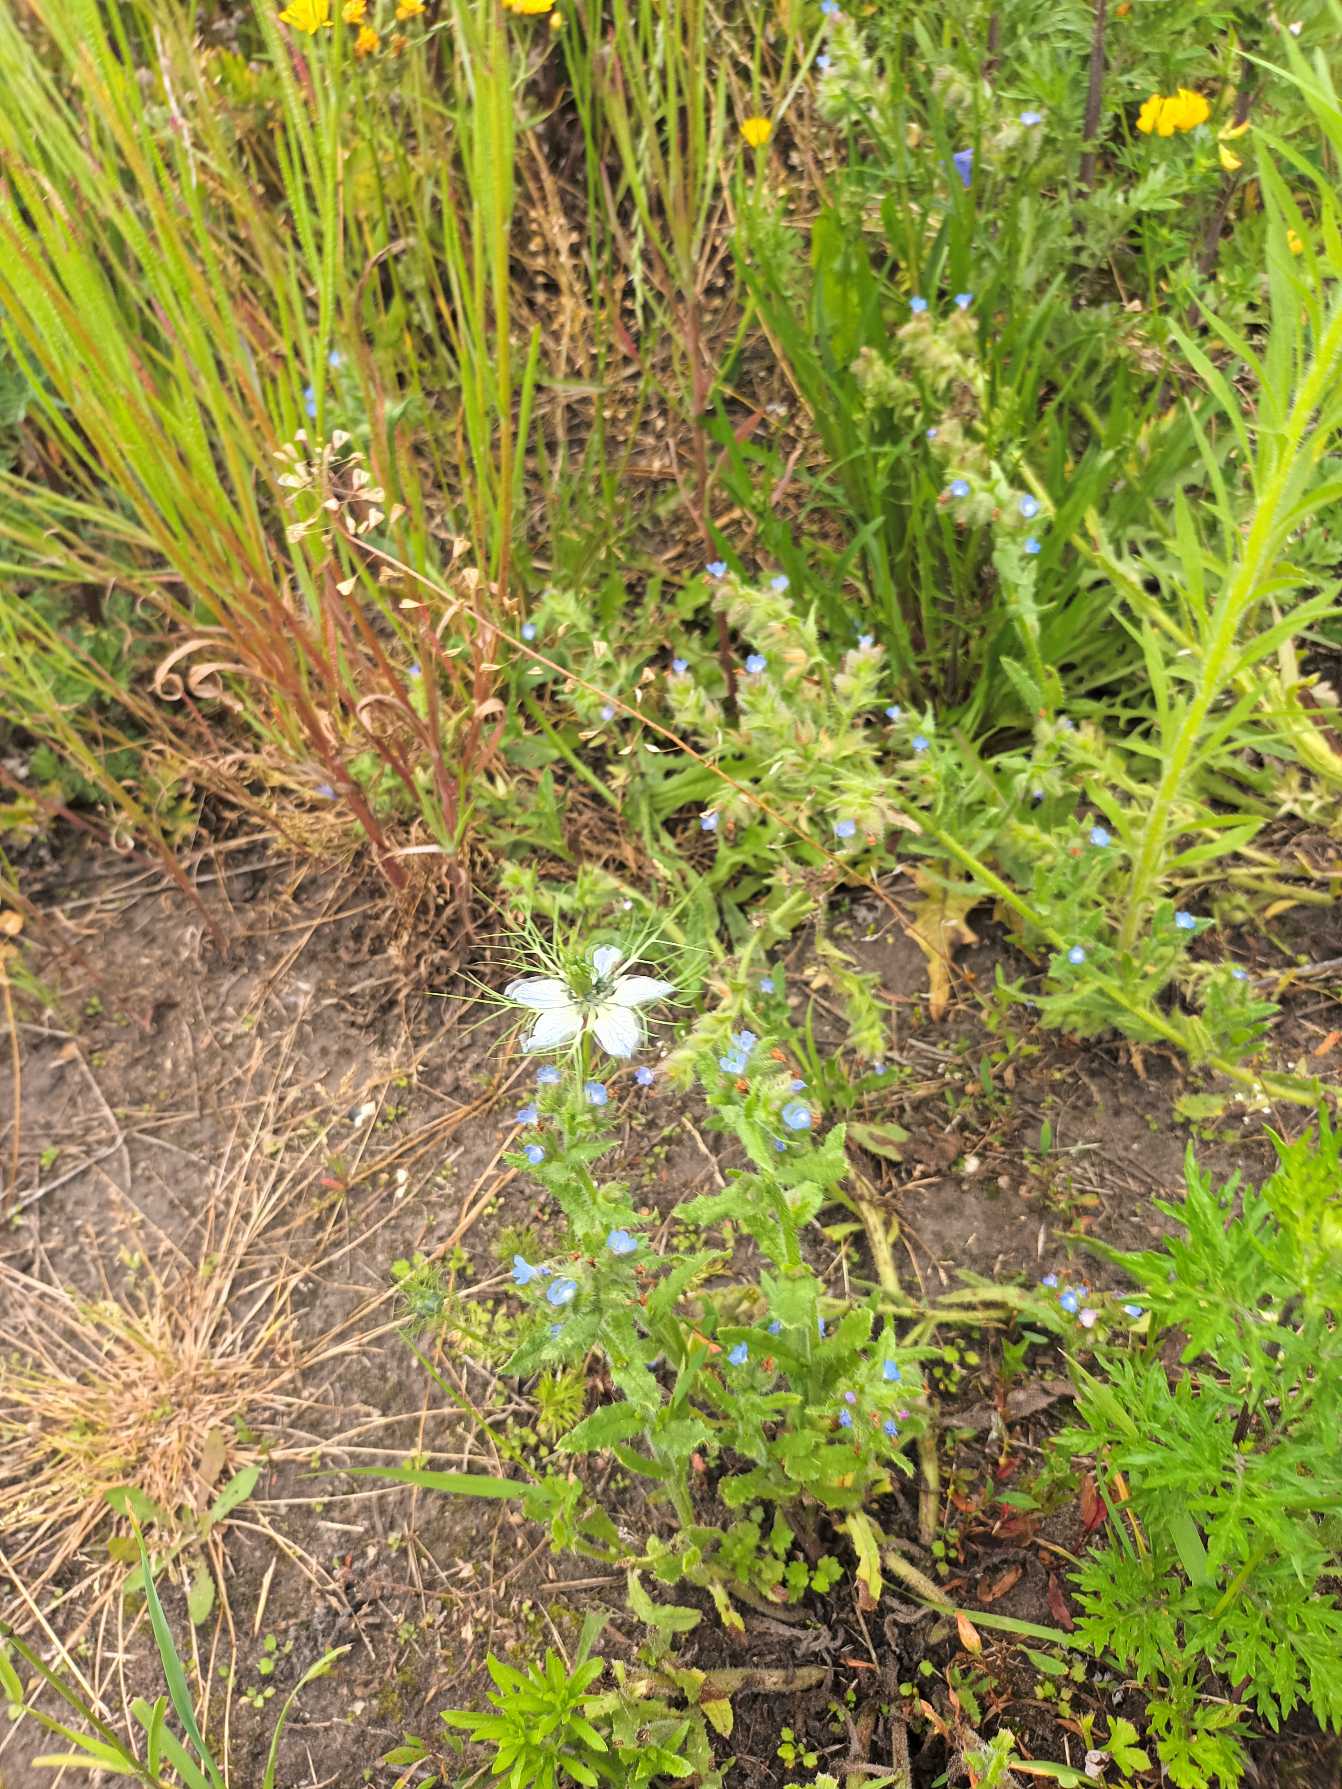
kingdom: Plantae
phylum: Tracheophyta
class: Magnoliopsida
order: Ranunculales
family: Ranunculaceae
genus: Nigella
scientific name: Nigella damascena
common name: Jomfru i det grønne
